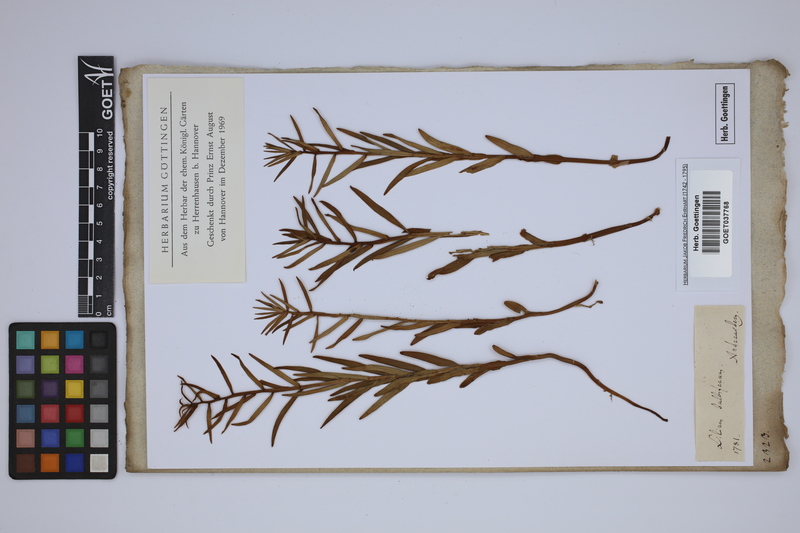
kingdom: Plantae
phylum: Tracheophyta
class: Liliopsida
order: Liliales
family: Liliaceae
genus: Lilium
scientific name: Lilium bulbiferum
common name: Orange lily
